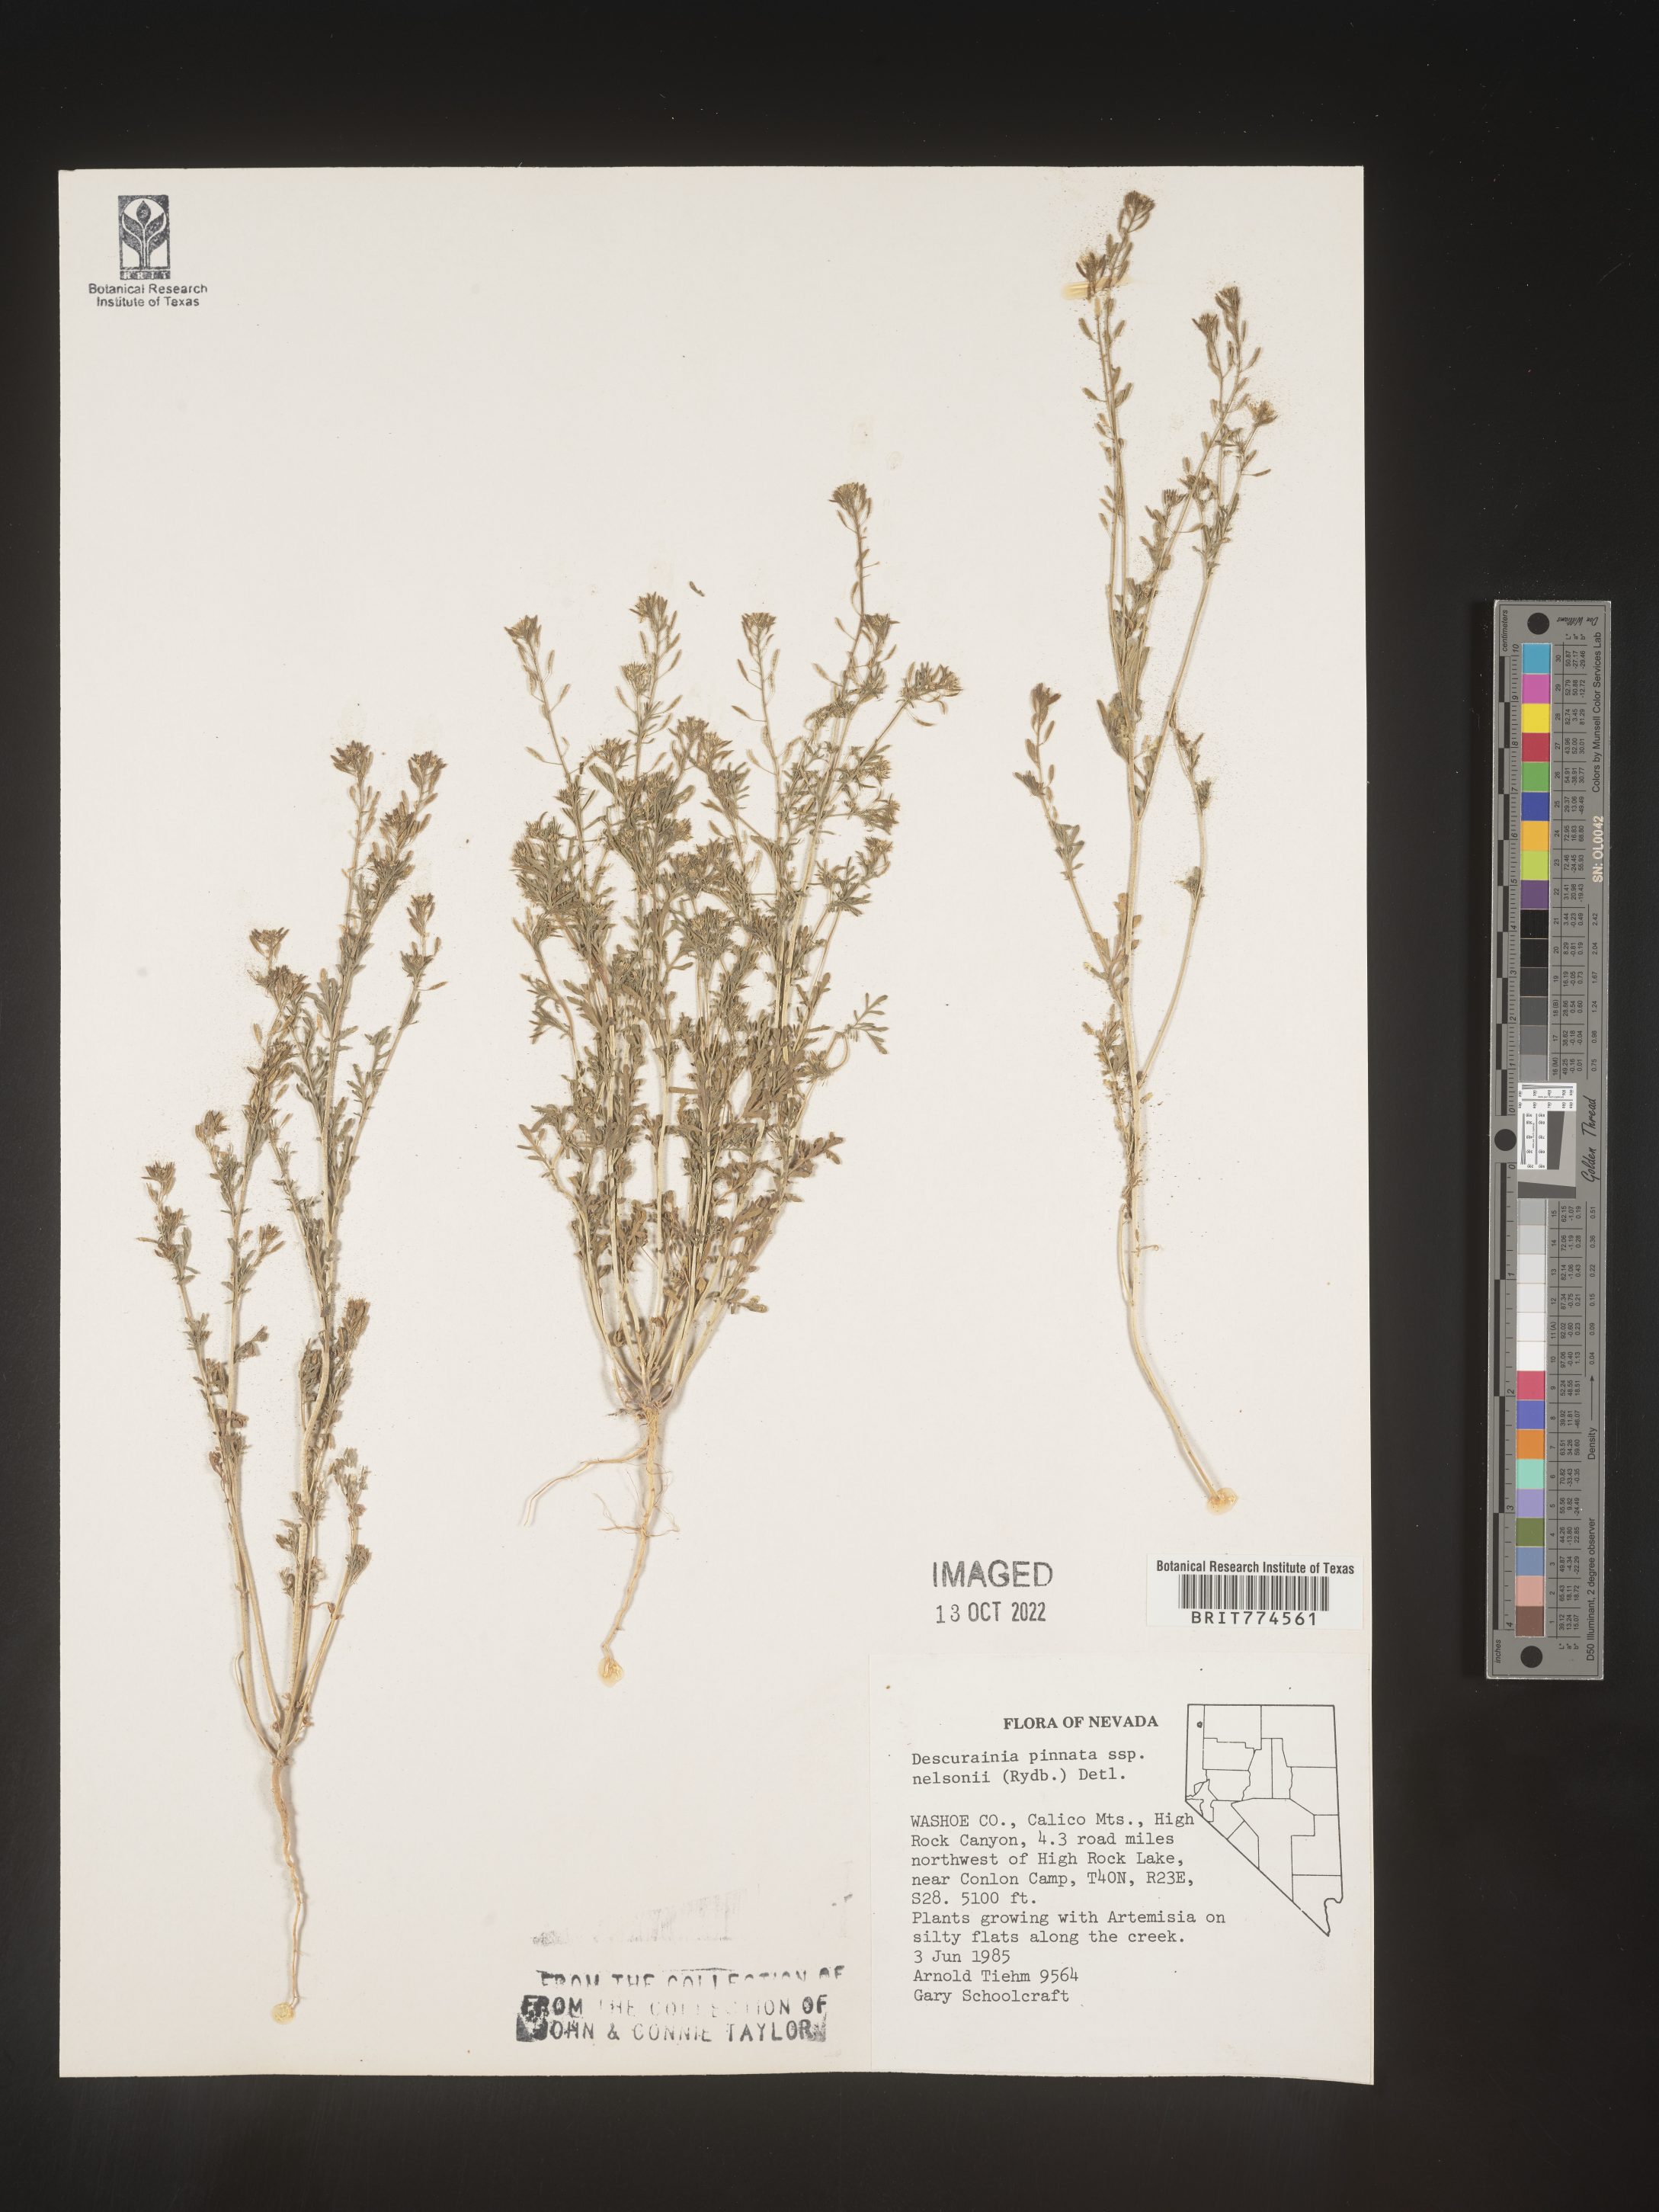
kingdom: Plantae
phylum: Tracheophyta
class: Magnoliopsida
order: Brassicales
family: Brassicaceae
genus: Descurainia
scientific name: Descurainia pinnata
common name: Western tansy mustard
